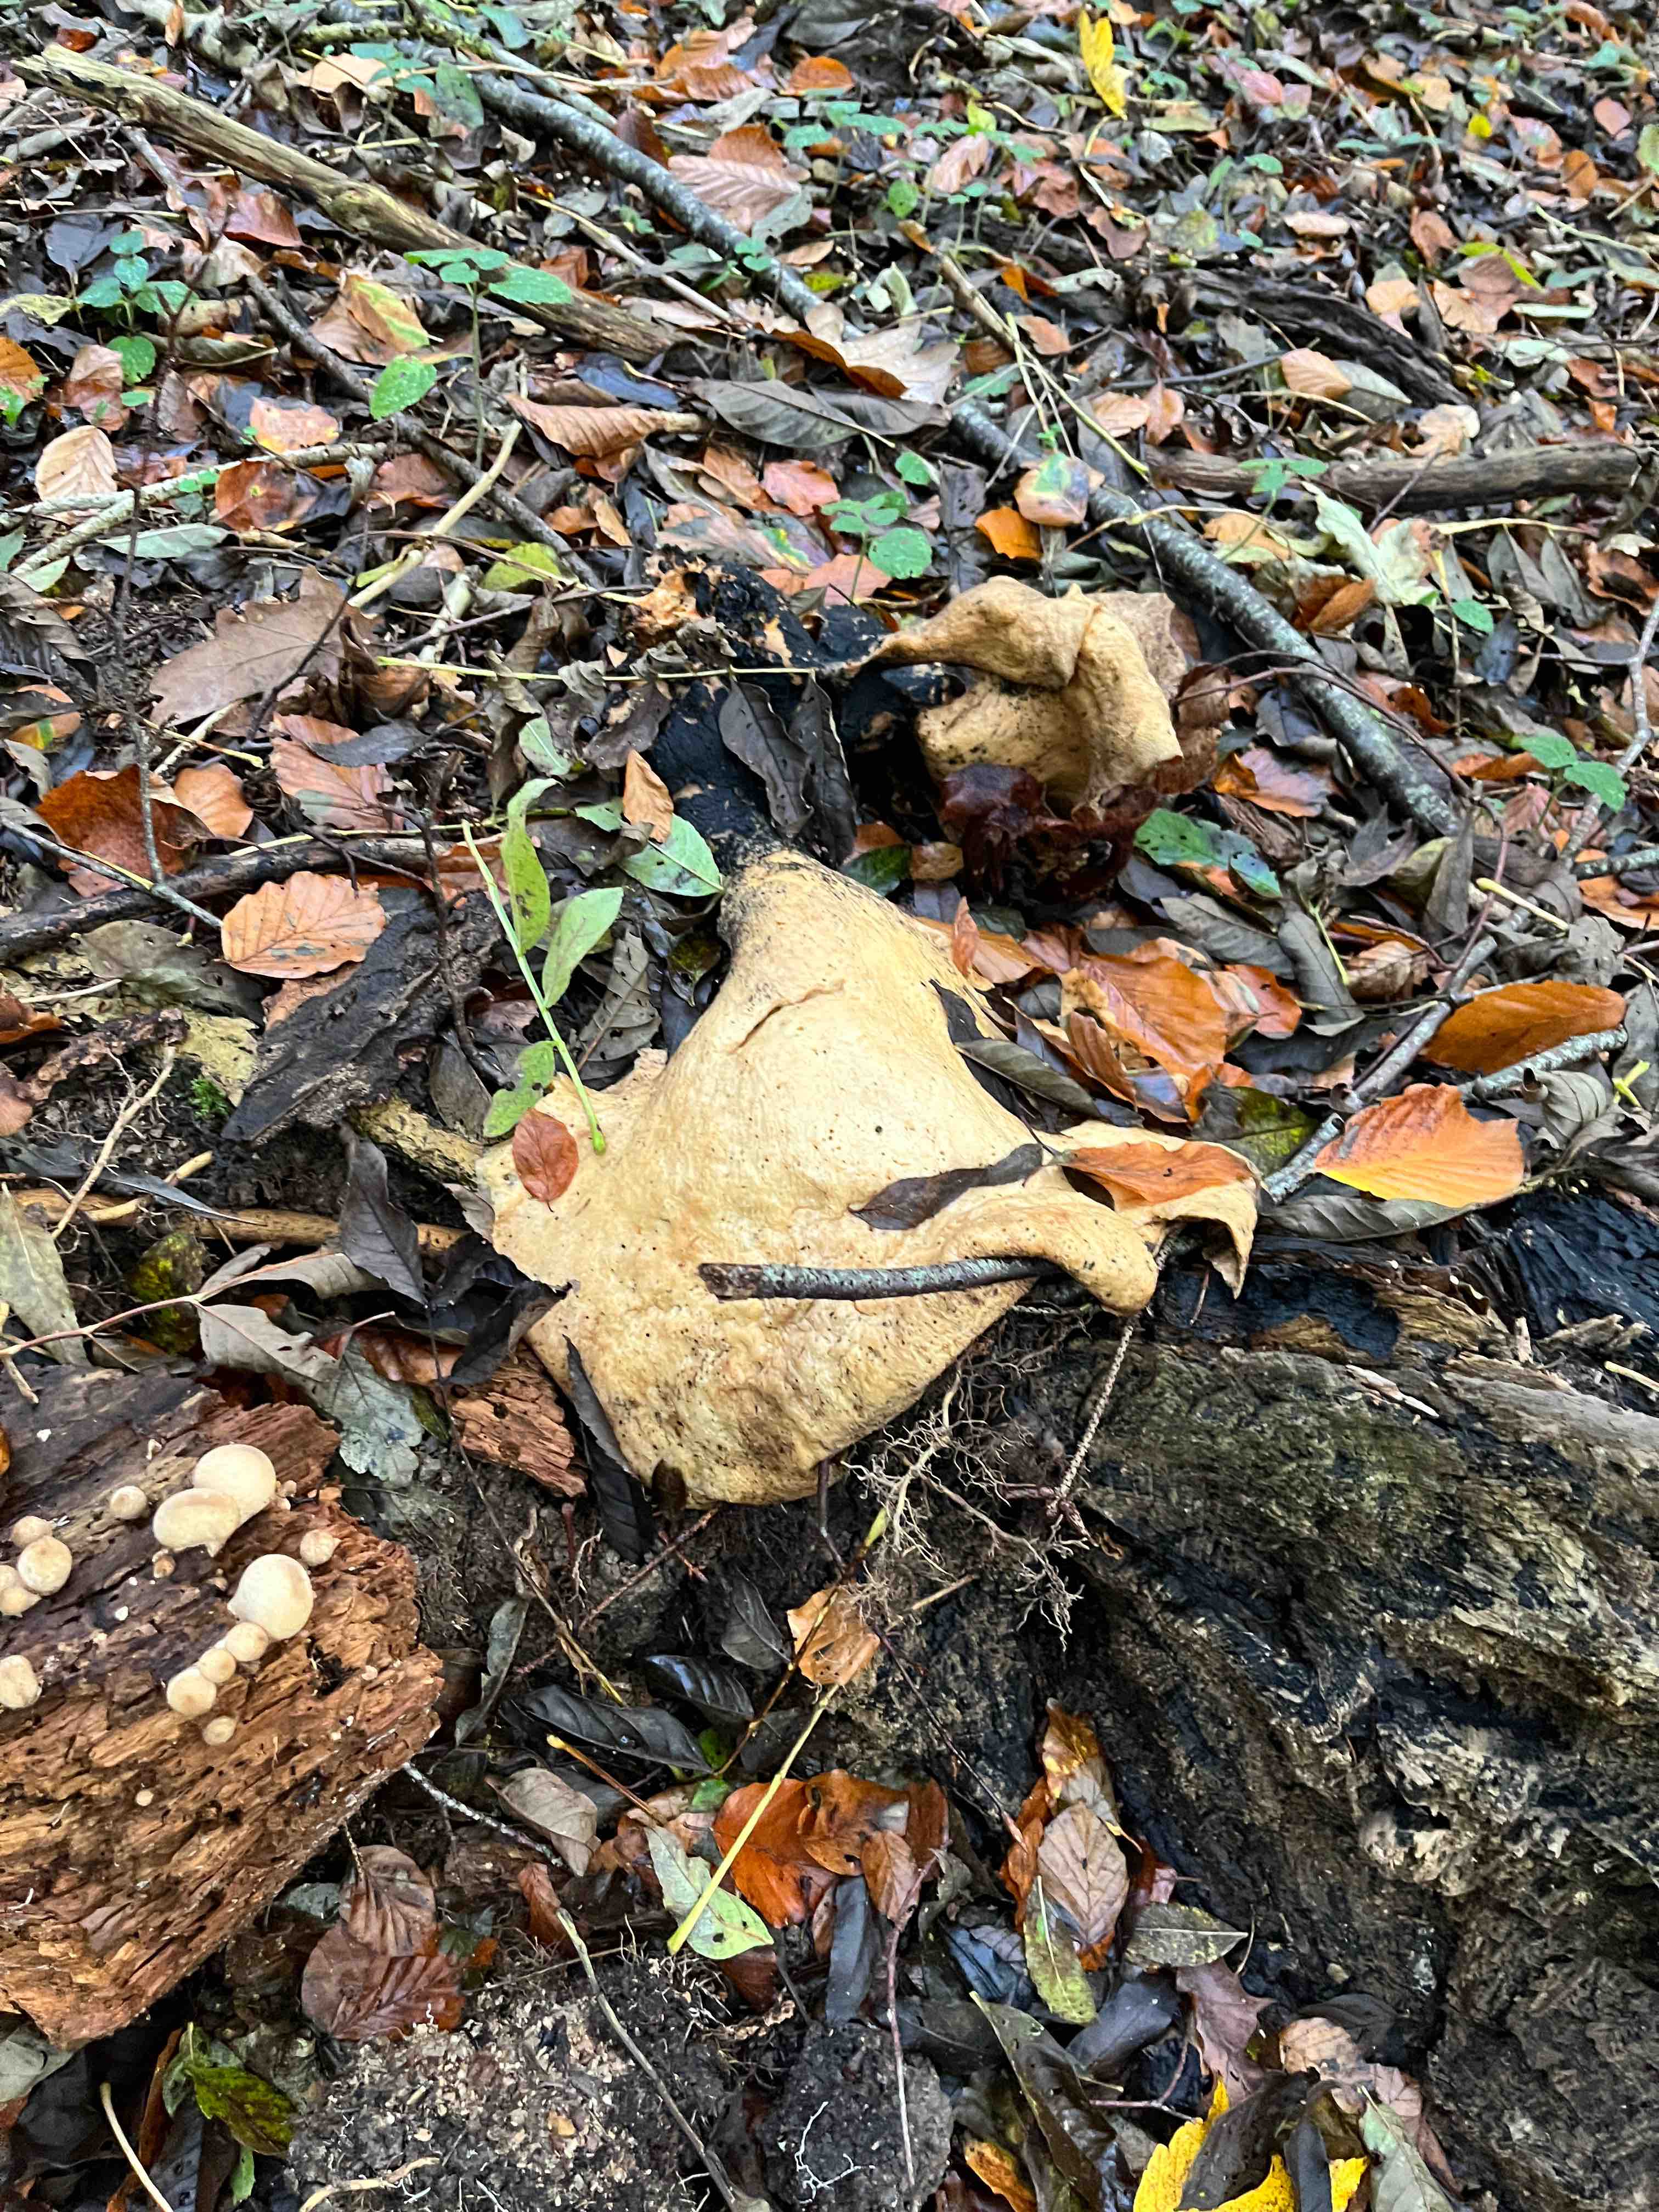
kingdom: Fungi
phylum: Basidiomycota
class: Agaricomycetes
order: Polyporales
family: Polyporaceae
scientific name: Polyporaceae
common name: poresvampfamilien
